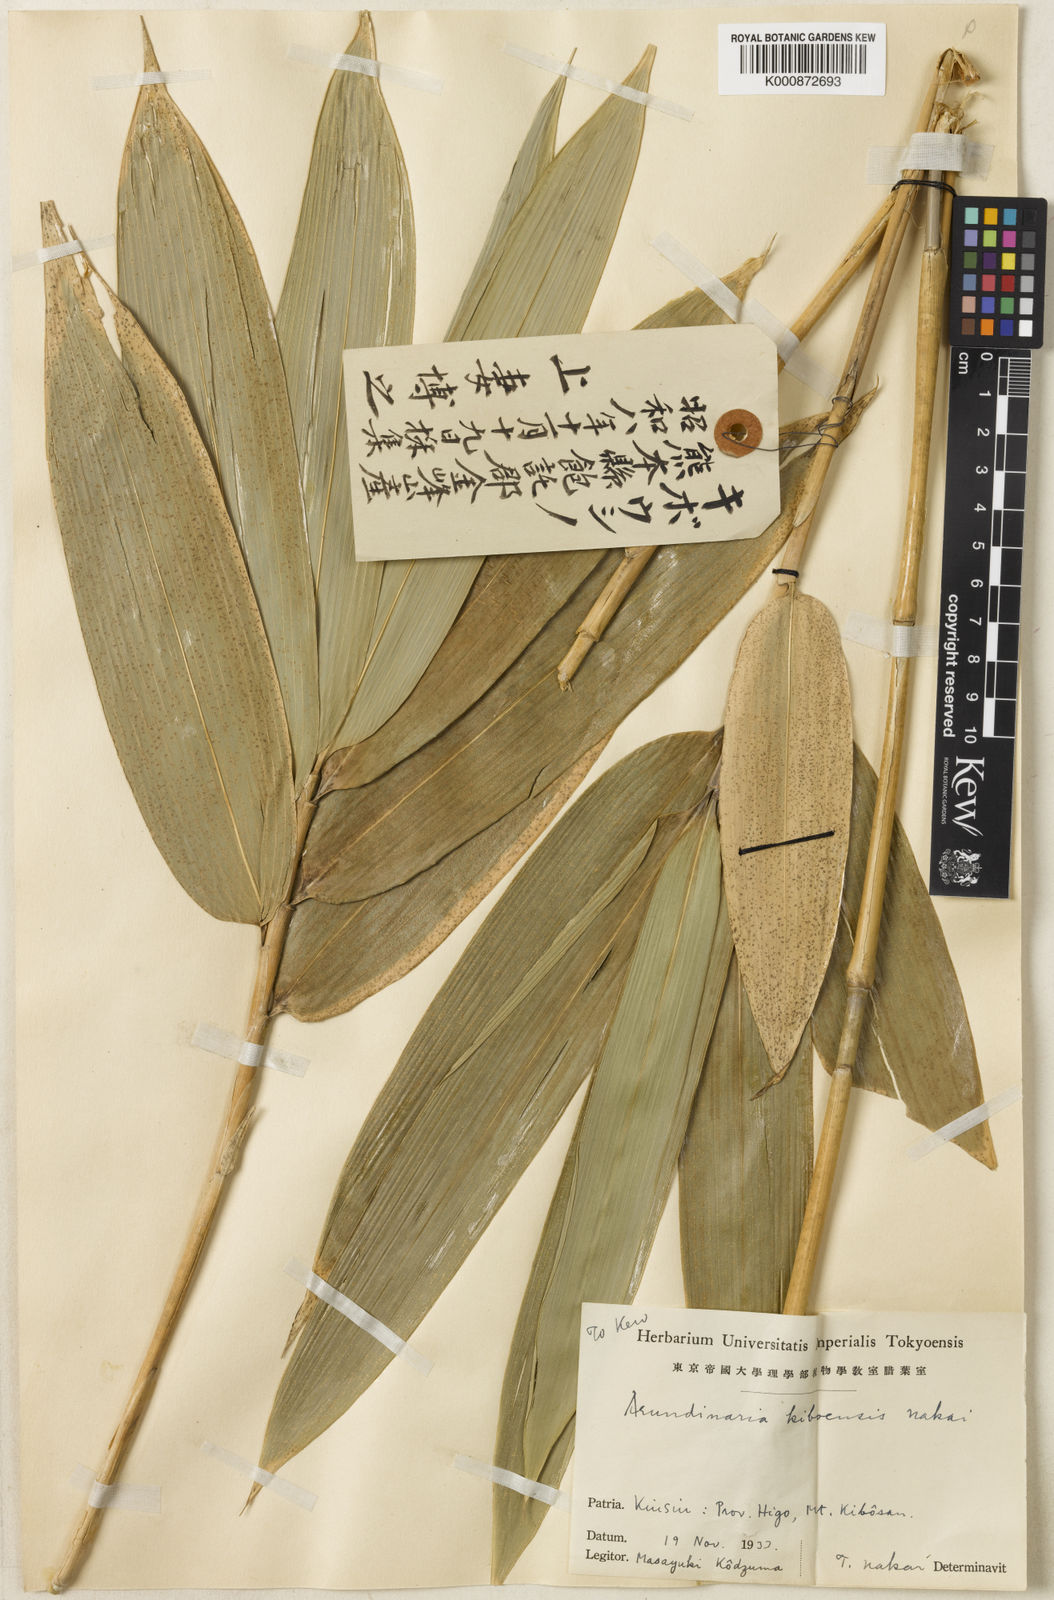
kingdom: Plantae
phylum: Tracheophyta
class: Liliopsida
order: Poales
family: Poaceae
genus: Sasaella
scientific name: Sasaella masamuneana
